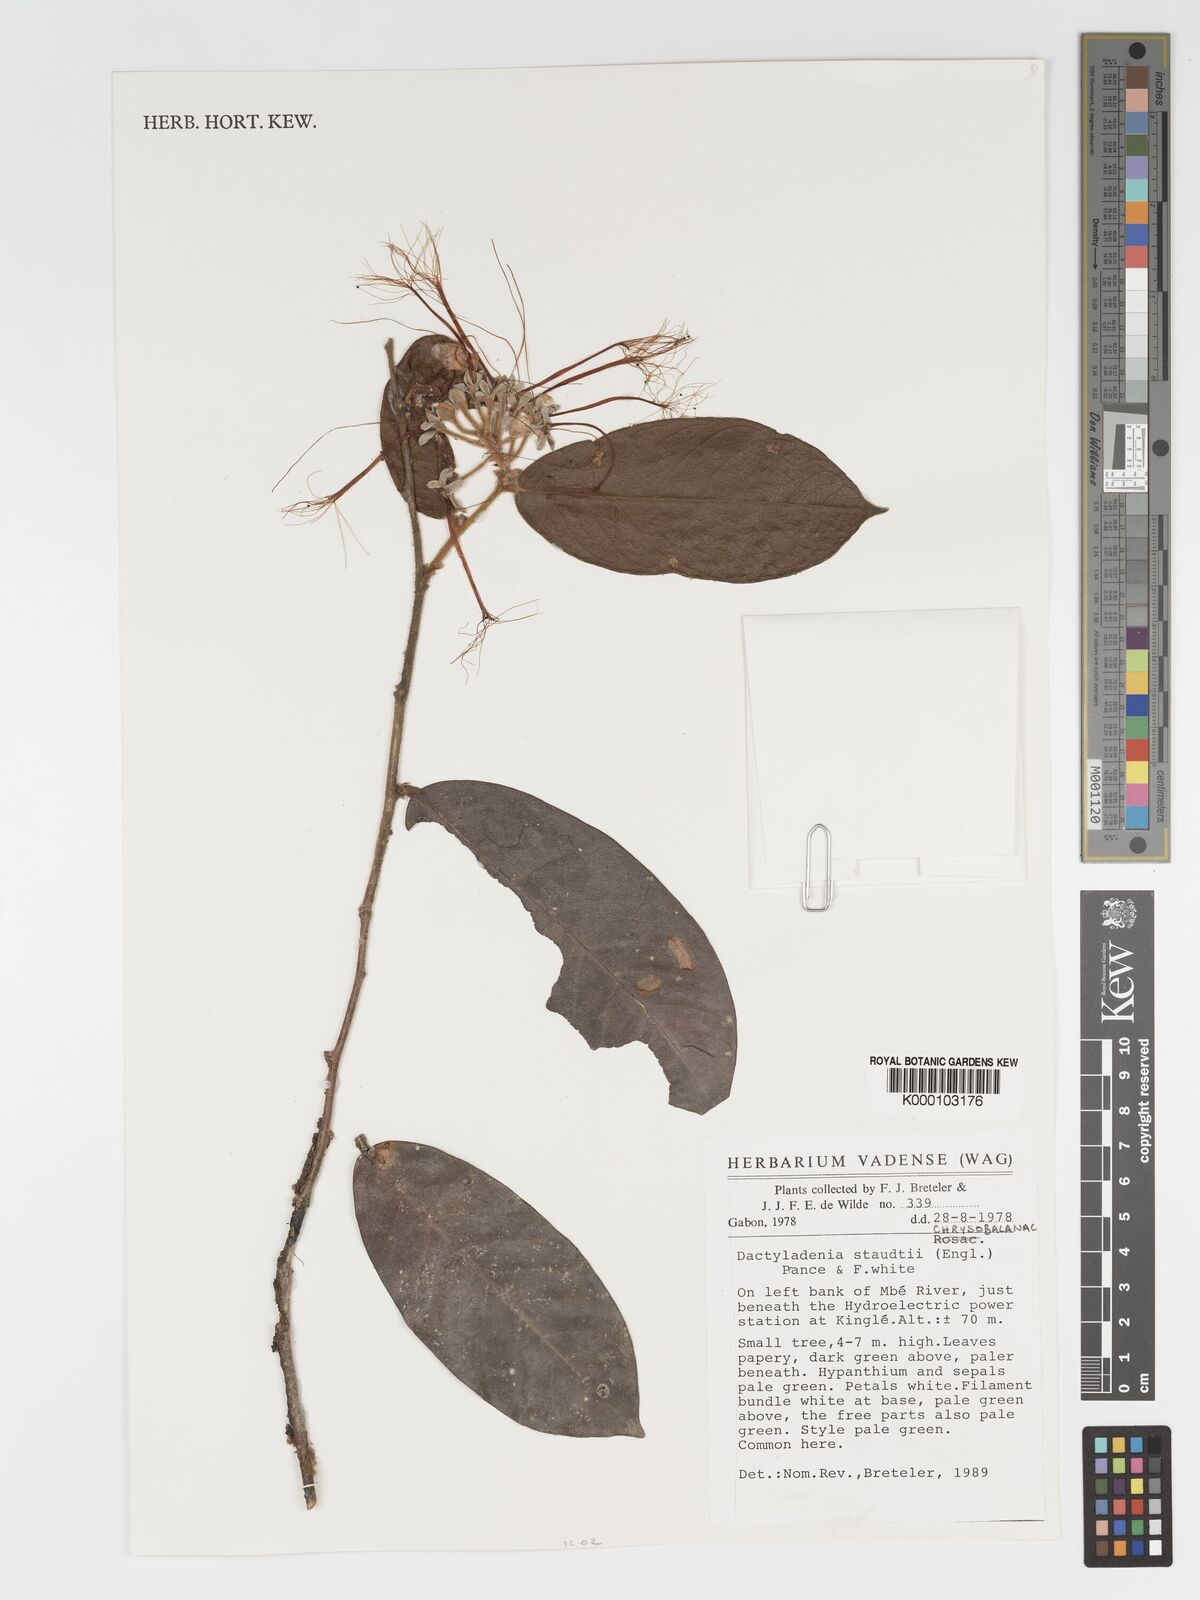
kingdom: Plantae
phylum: Tracheophyta
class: Magnoliopsida
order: Malpighiales
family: Chrysobalanaceae
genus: Dactyladenia
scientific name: Dactyladenia staudtii
